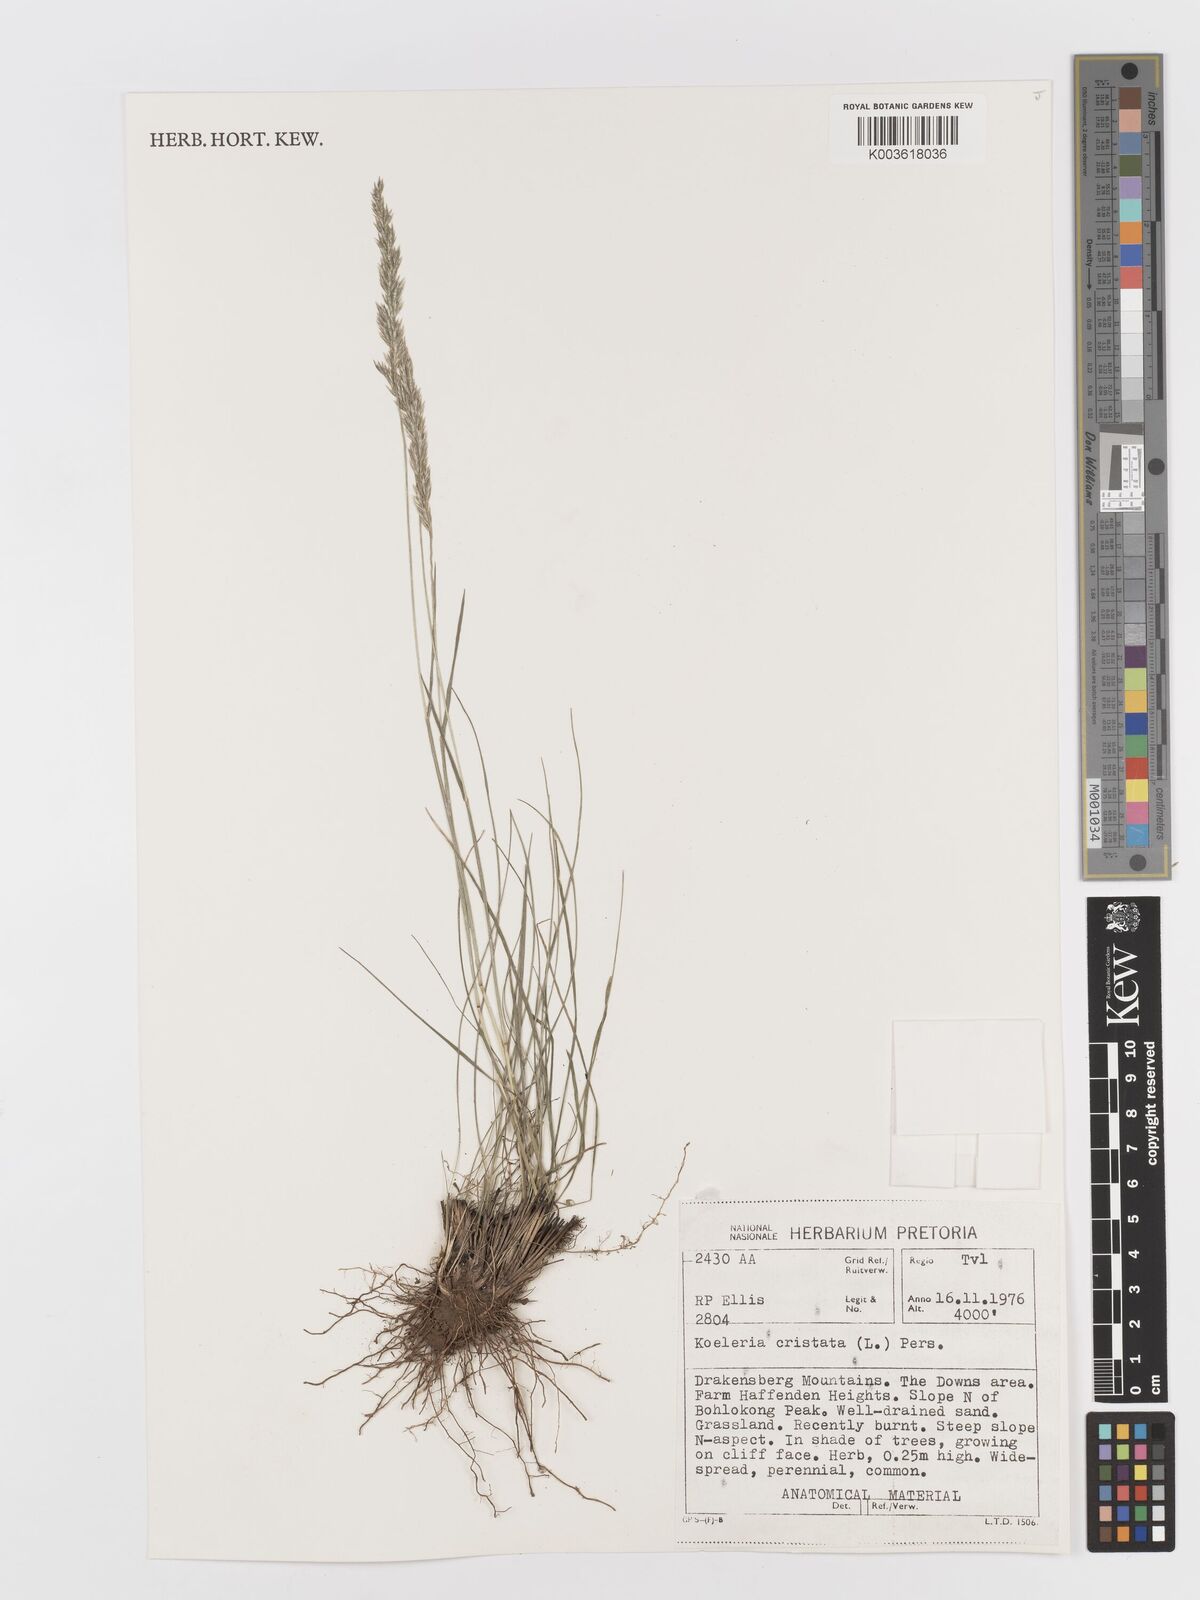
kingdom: Plantae
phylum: Tracheophyta
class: Liliopsida
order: Poales
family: Poaceae
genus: Koeleria
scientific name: Koeleria capensis
